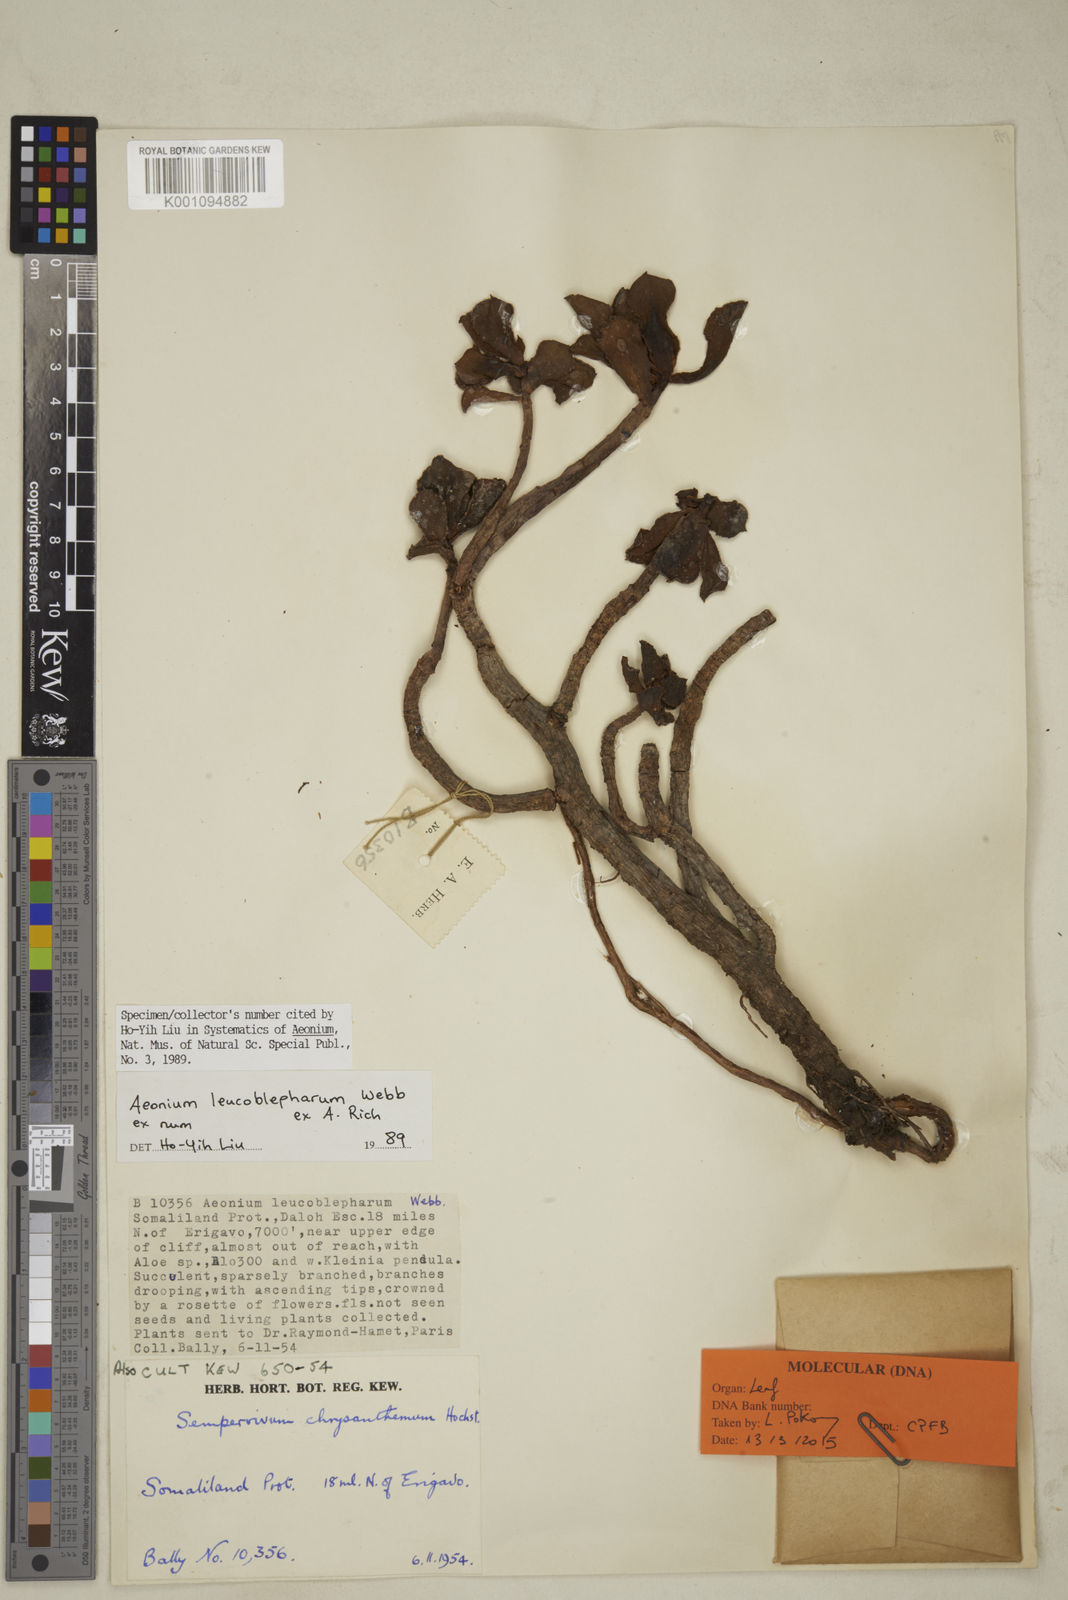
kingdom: Plantae
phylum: Tracheophyta
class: Magnoliopsida
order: Saxifragales
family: Crassulaceae
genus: Aeonium
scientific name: Aeonium leucoblepharum
